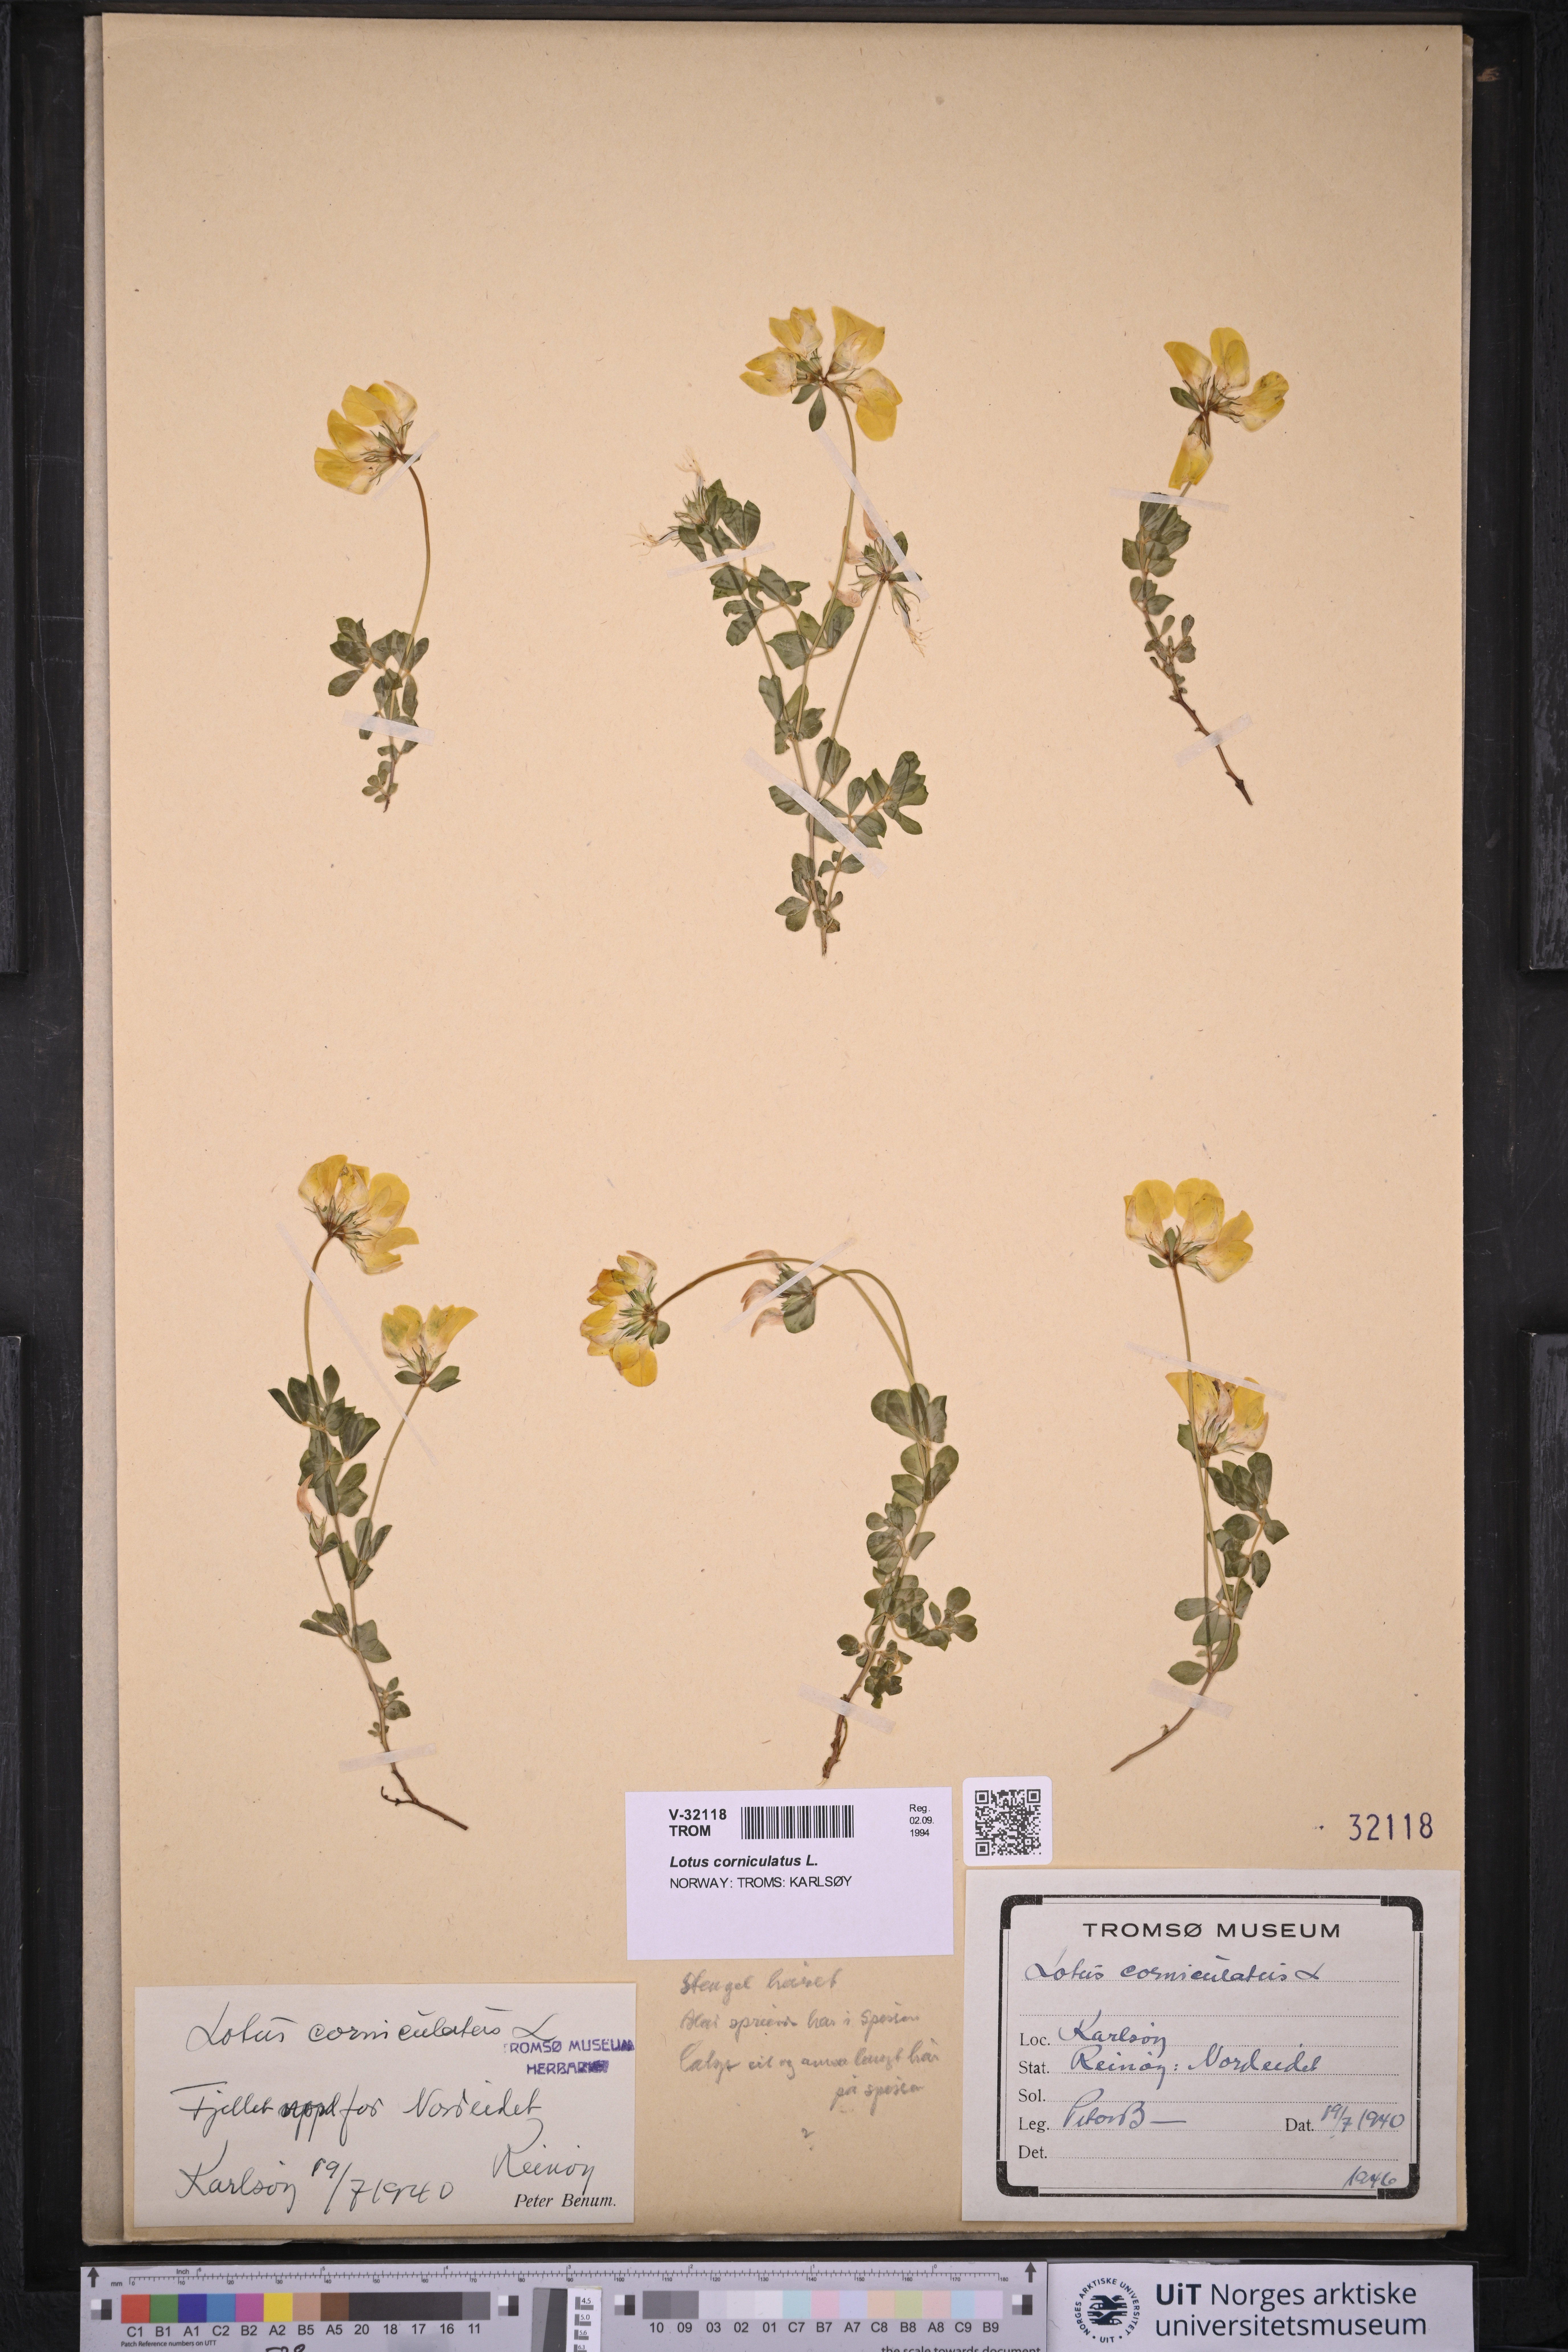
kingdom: Plantae
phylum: Tracheophyta
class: Magnoliopsida
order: Fabales
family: Fabaceae
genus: Lotus
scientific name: Lotus corniculatus
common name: Common bird's-foot-trefoil
